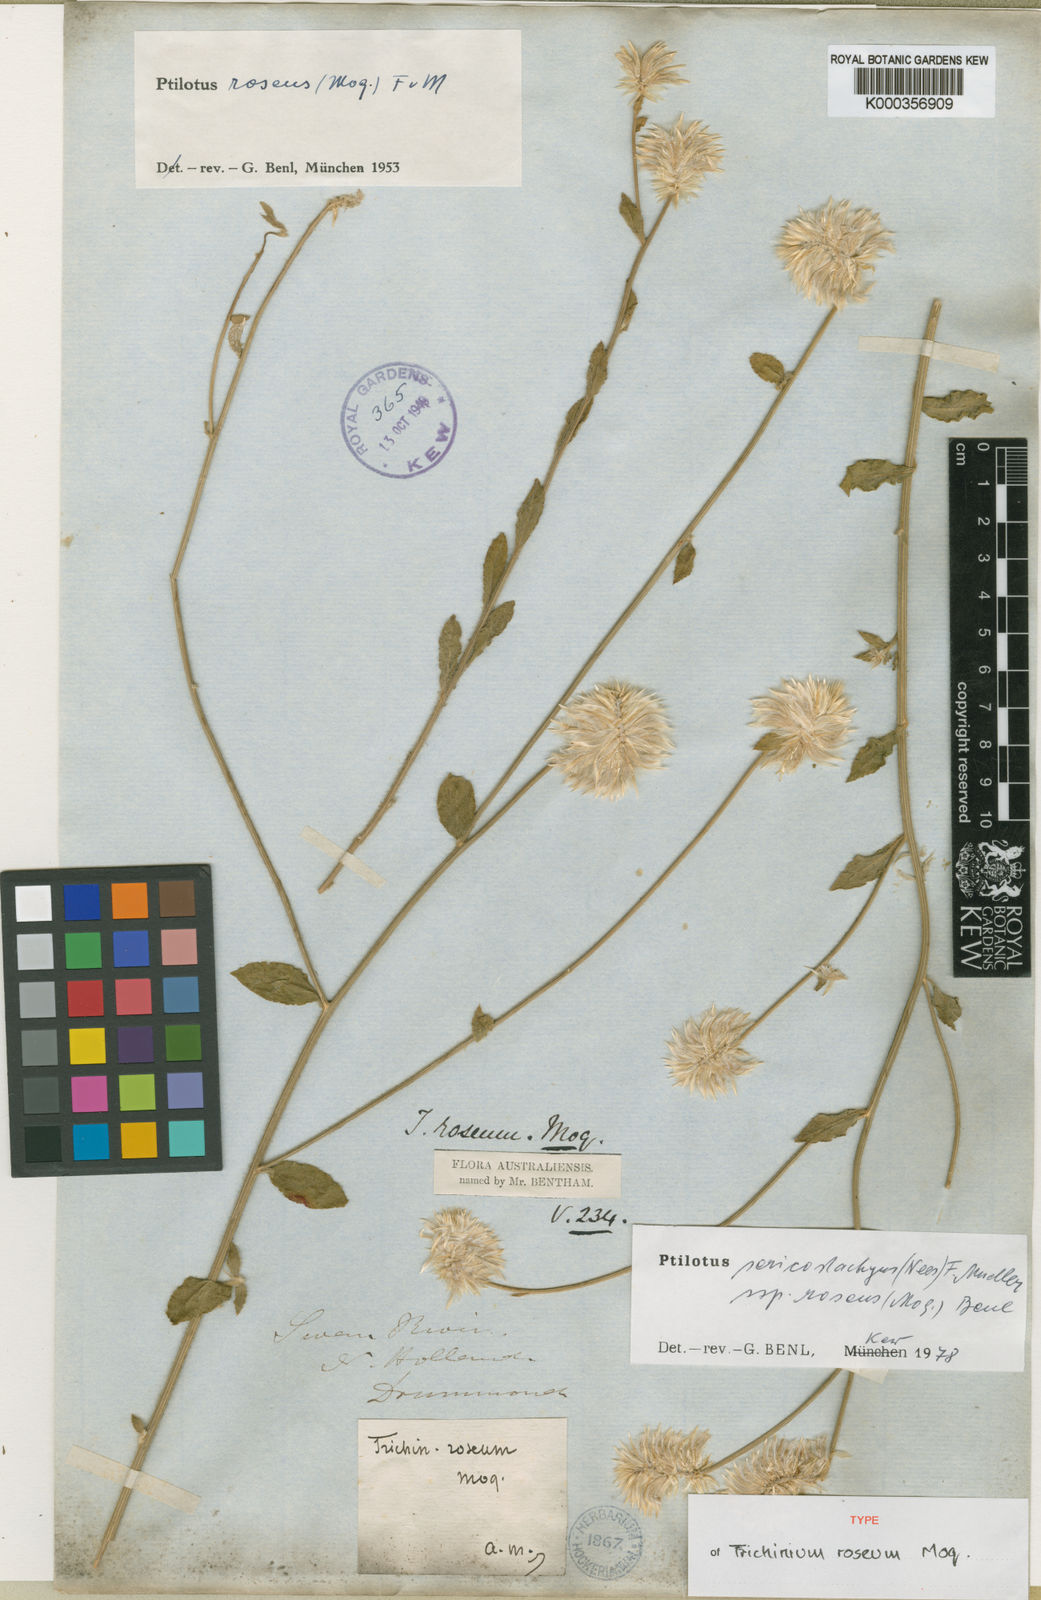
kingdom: Plantae
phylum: Tracheophyta
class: Magnoliopsida
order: Caryophyllales
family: Amaranthaceae
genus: Ptilotus
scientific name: Ptilotus sericostachyus
